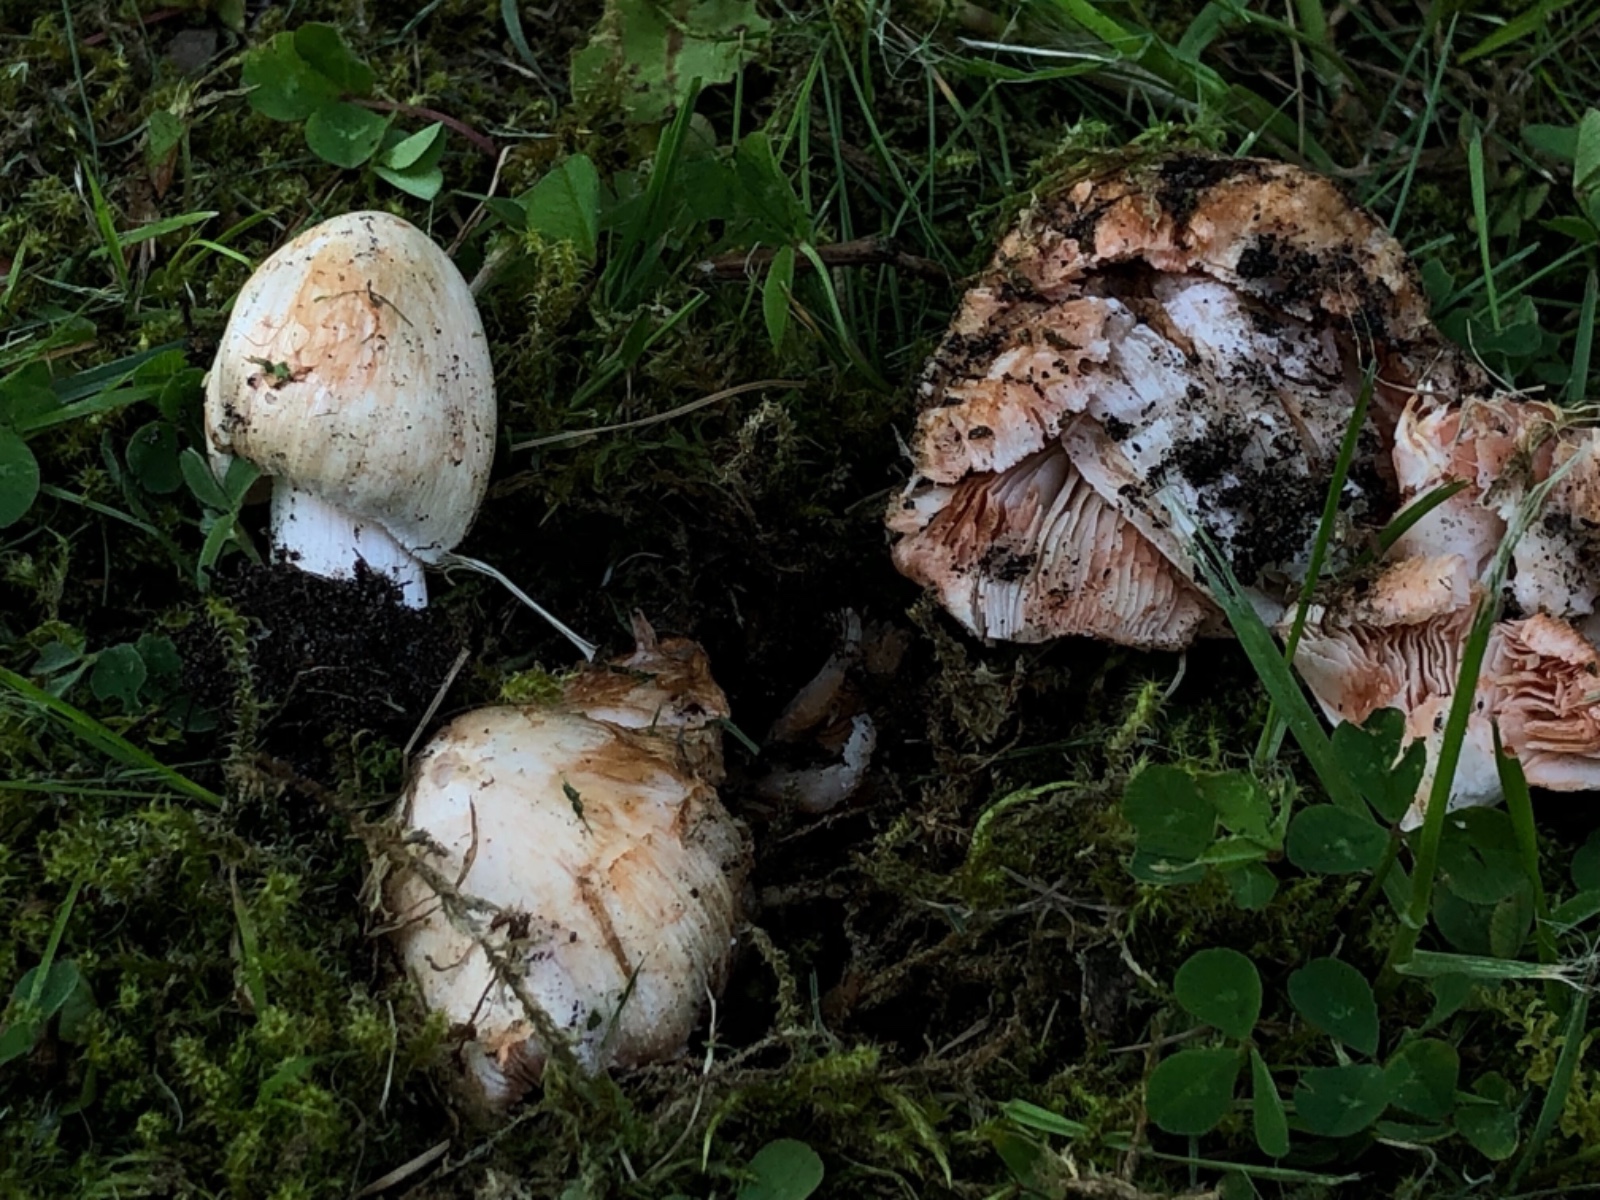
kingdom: Fungi
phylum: Basidiomycota
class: Agaricomycetes
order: Agaricales
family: Inocybaceae
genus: Inosperma
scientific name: Inosperma erubescens
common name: giftig trævlhat
